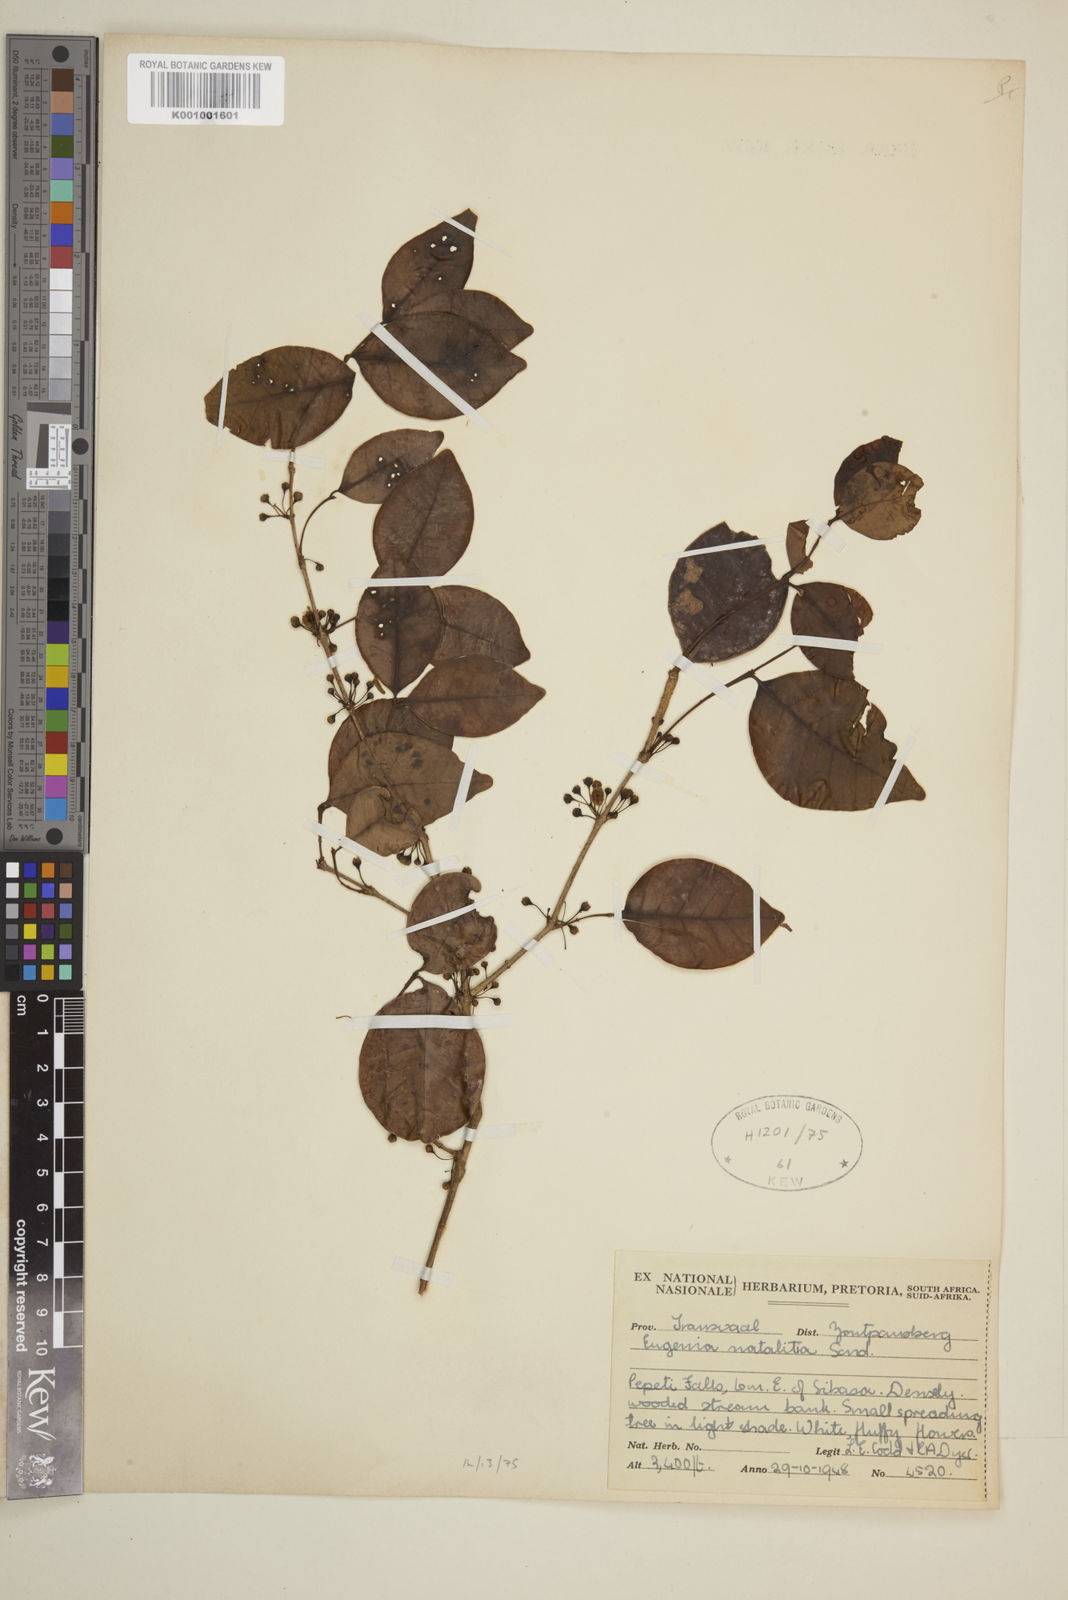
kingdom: Plantae
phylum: Tracheophyta
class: Magnoliopsida
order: Myrtales
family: Myrtaceae
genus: Eugenia
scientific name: Eugenia natalitia
